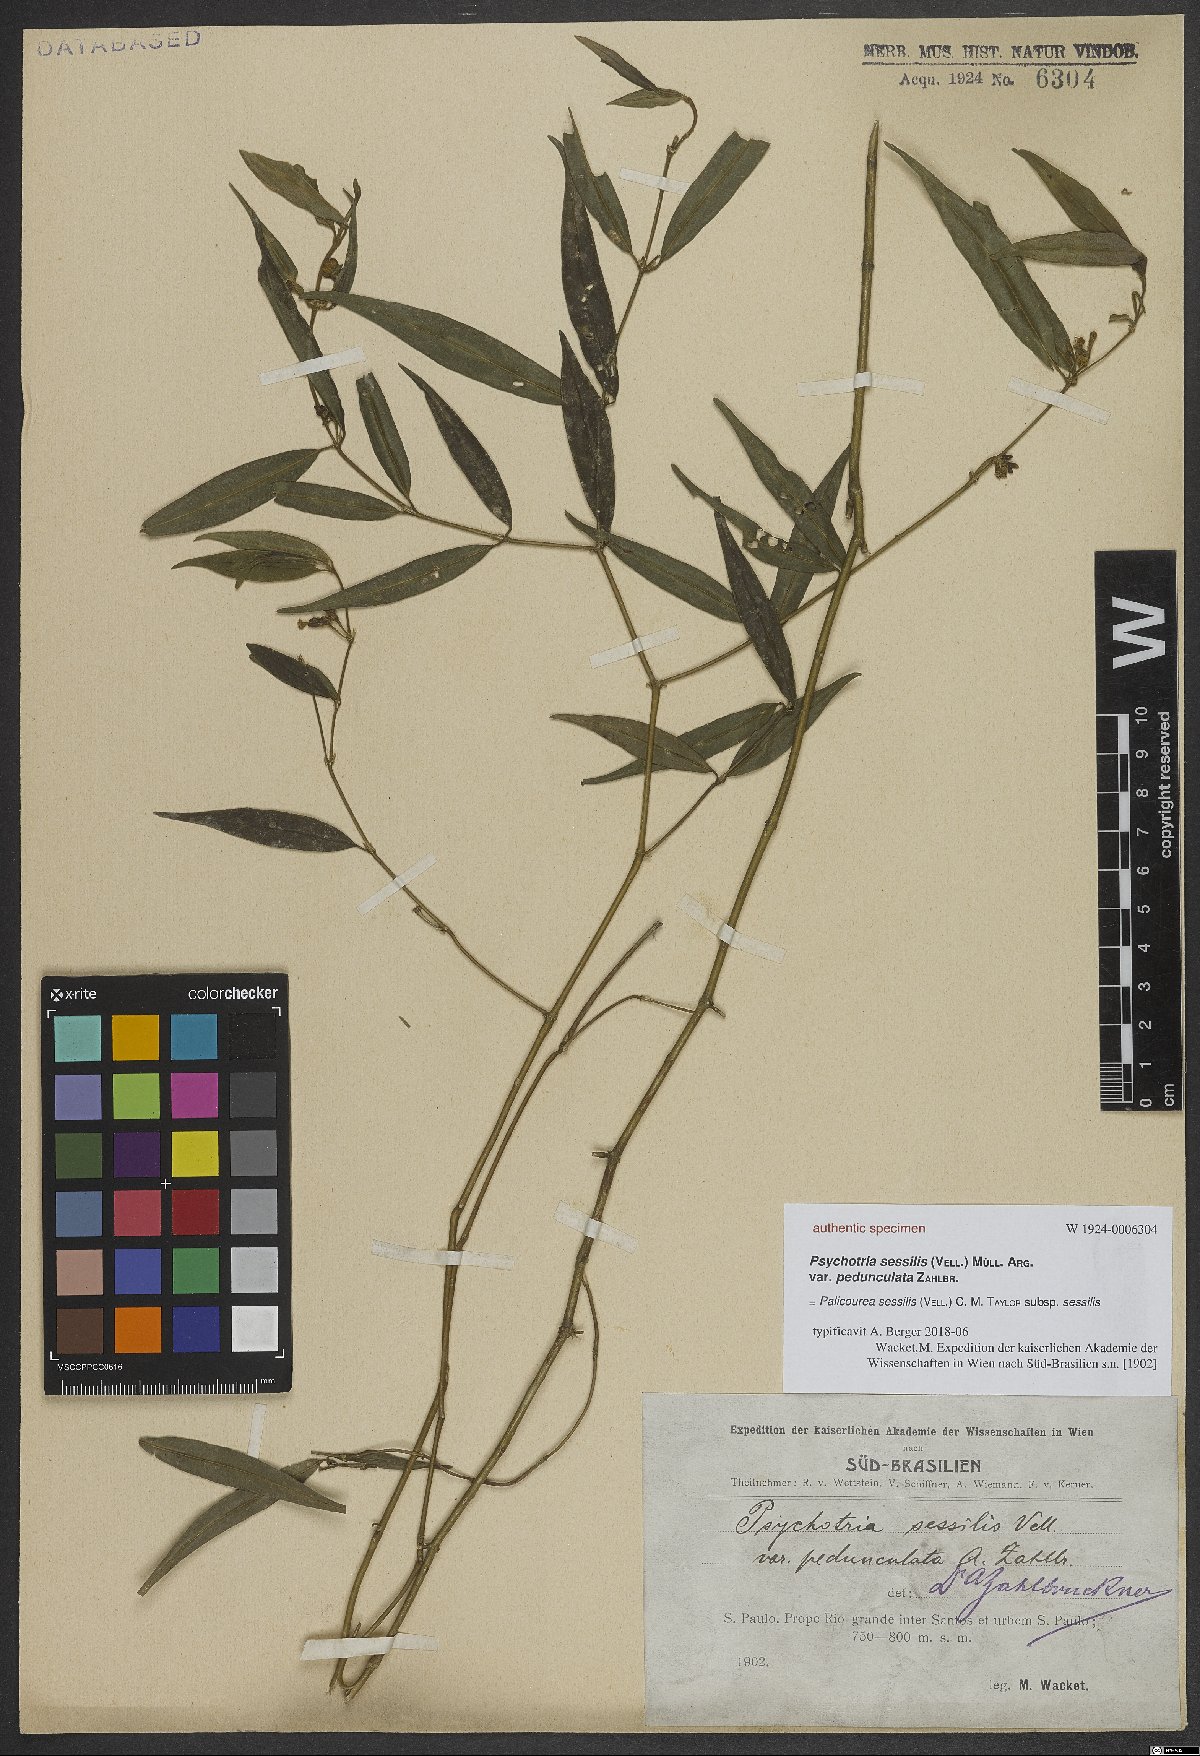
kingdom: Plantae
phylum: Tracheophyta
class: Magnoliopsida
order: Gentianales
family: Rubiaceae
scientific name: Rubiaceae
